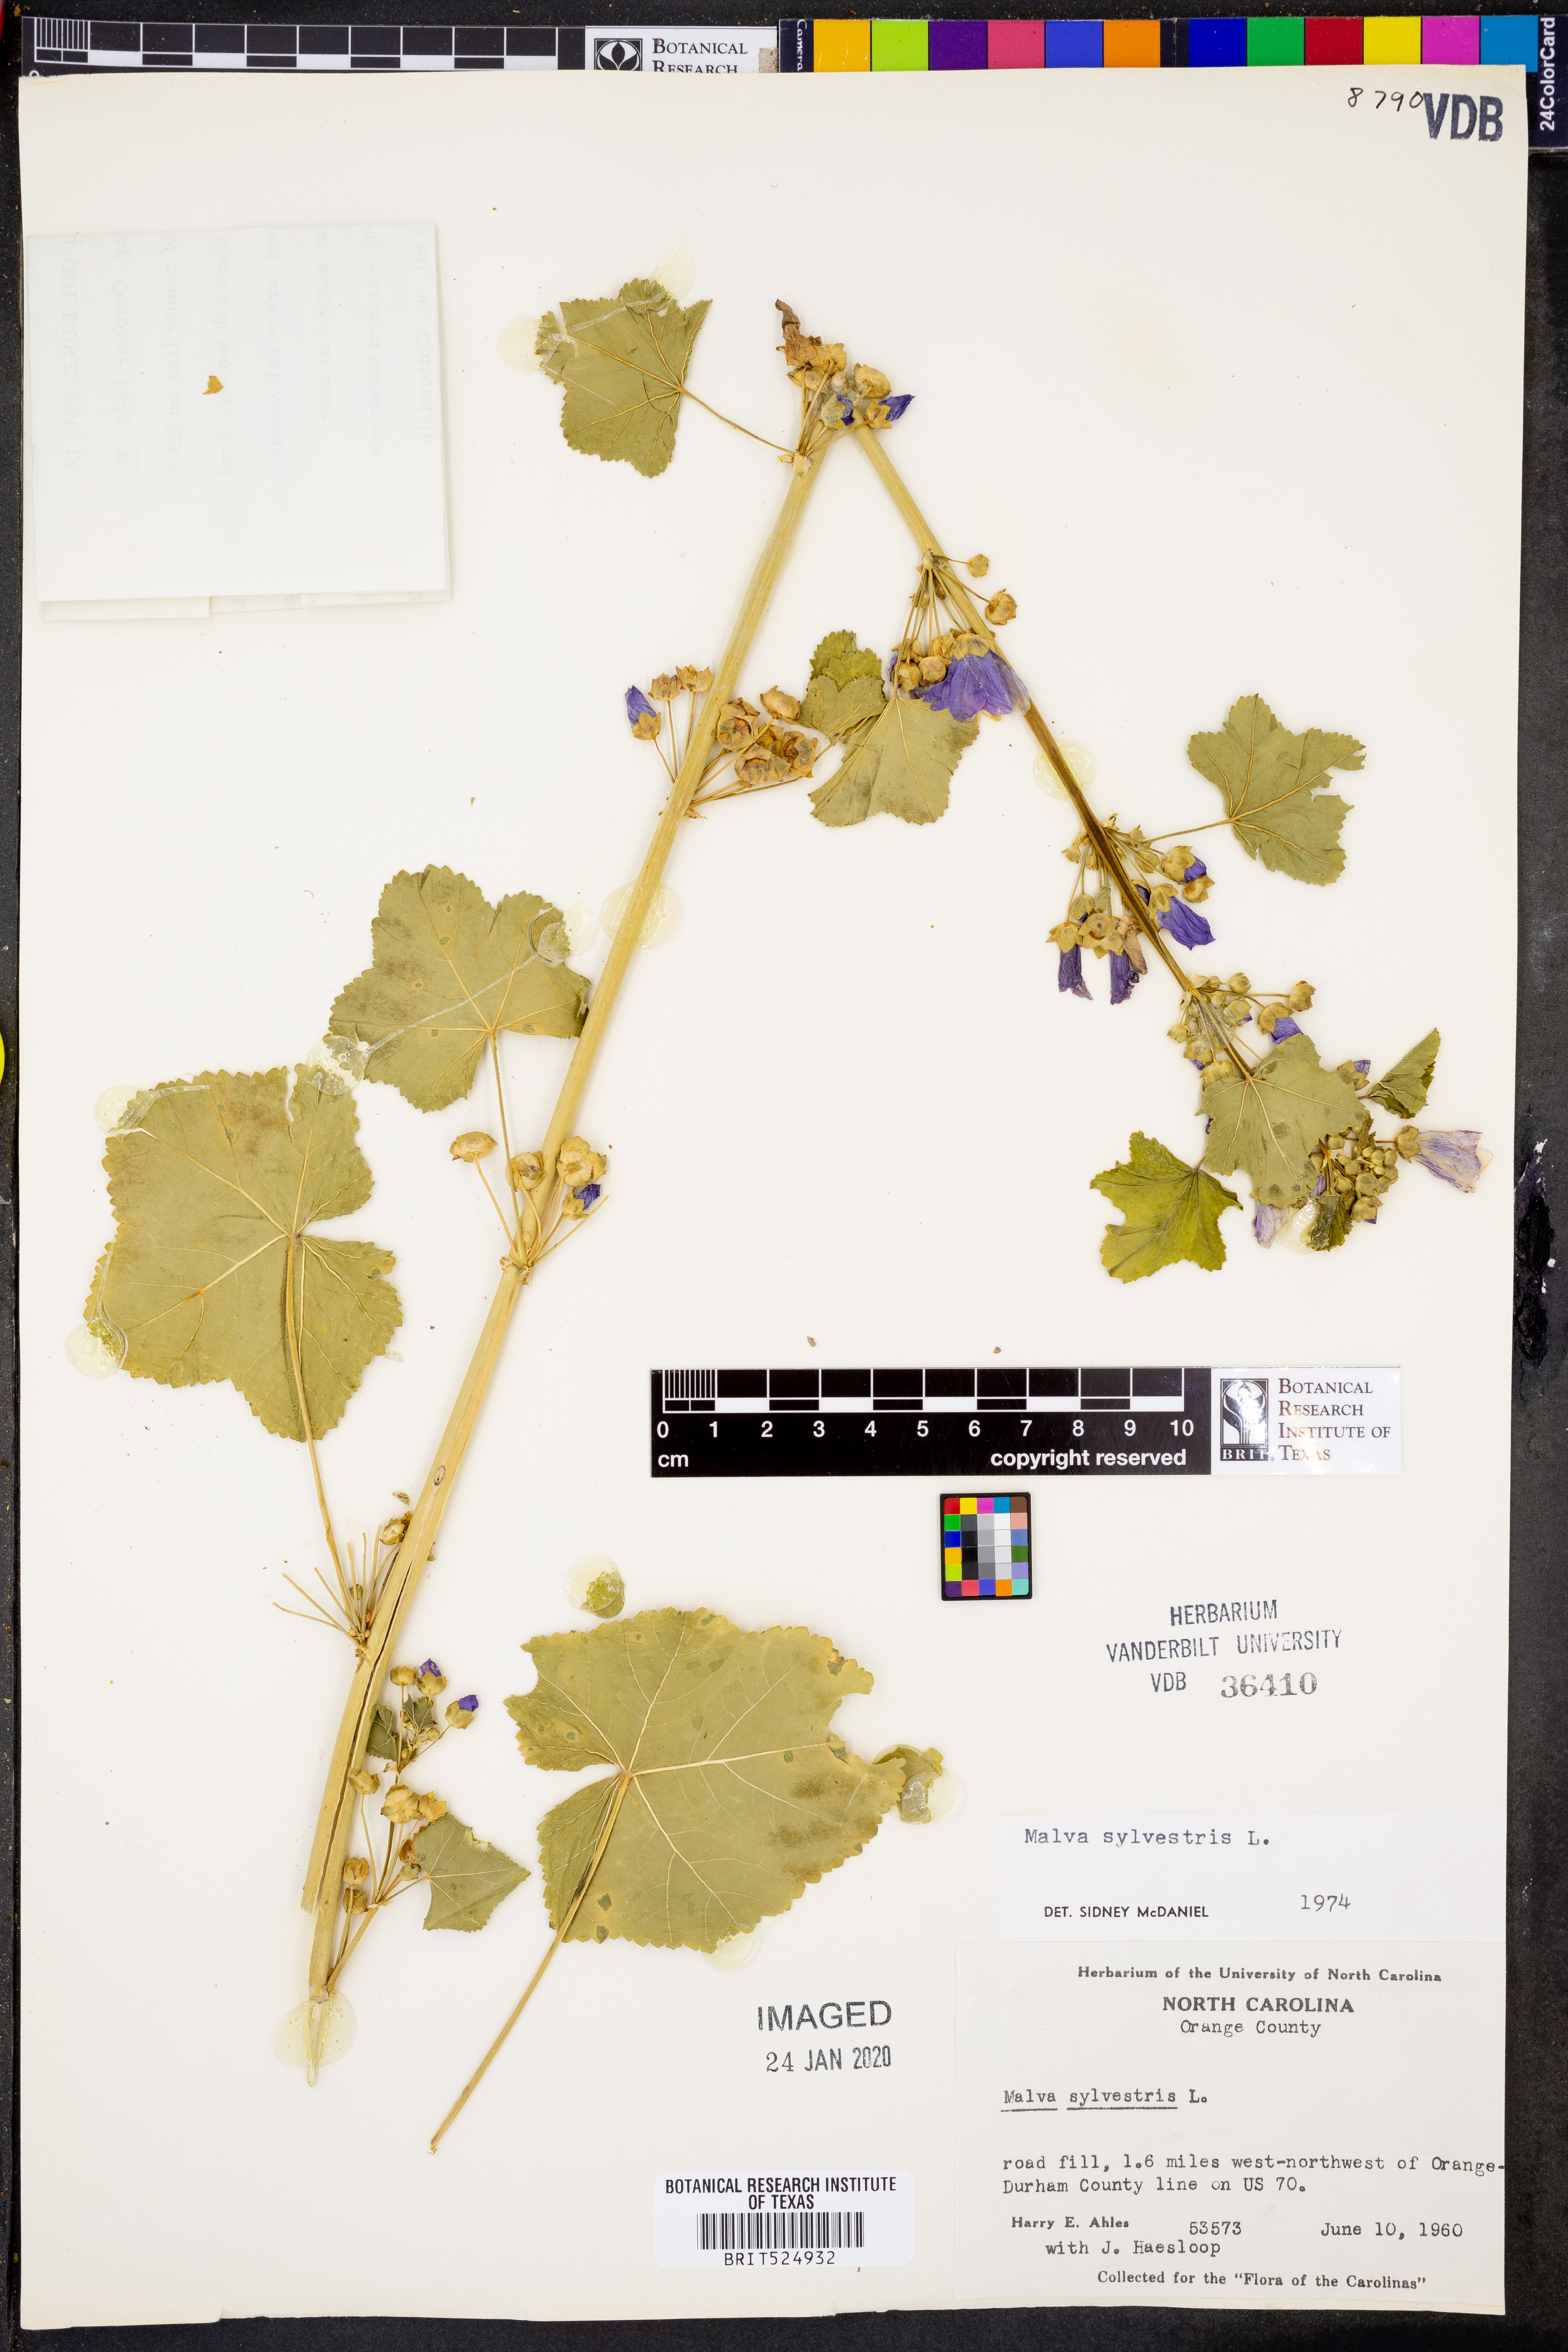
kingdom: Plantae
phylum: Tracheophyta
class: Magnoliopsida
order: Malvales
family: Malvaceae
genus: Malva
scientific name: Malva sylvestris
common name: Common mallow
